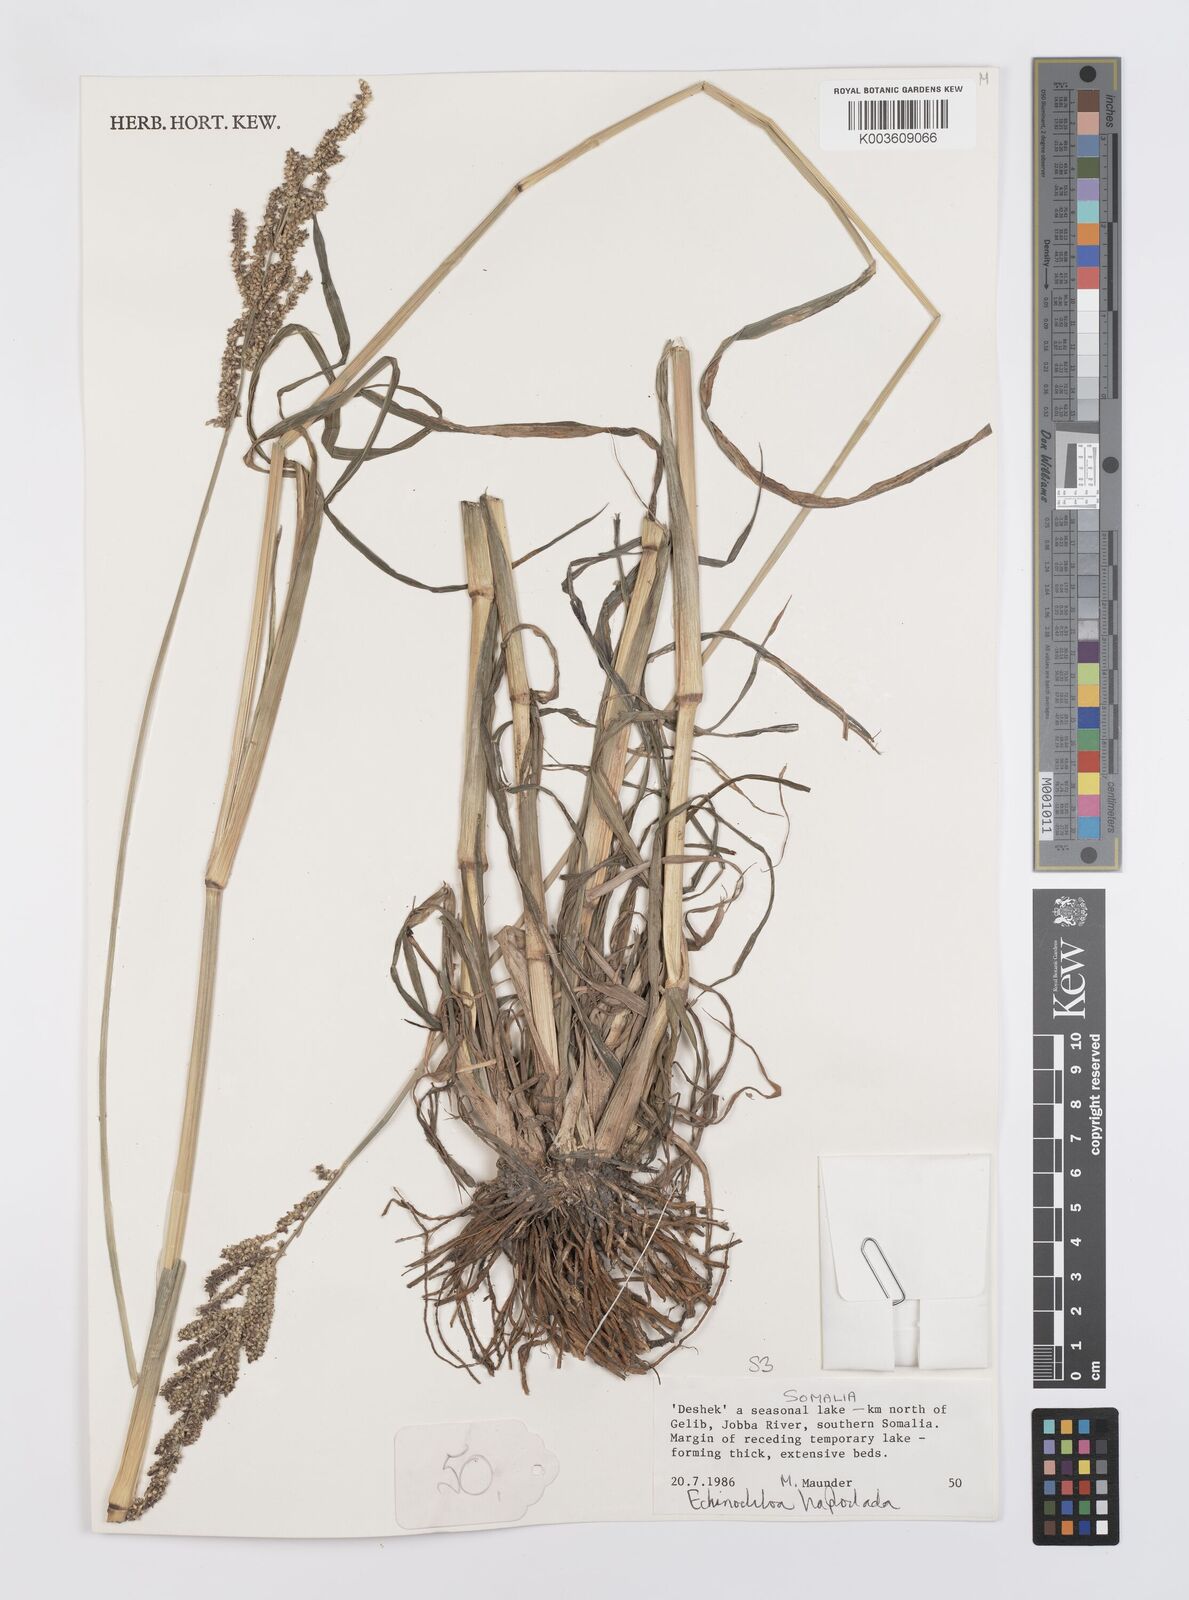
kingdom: Plantae
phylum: Tracheophyta
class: Liliopsida
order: Poales
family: Poaceae
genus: Echinochloa
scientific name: Echinochloa haploclada
